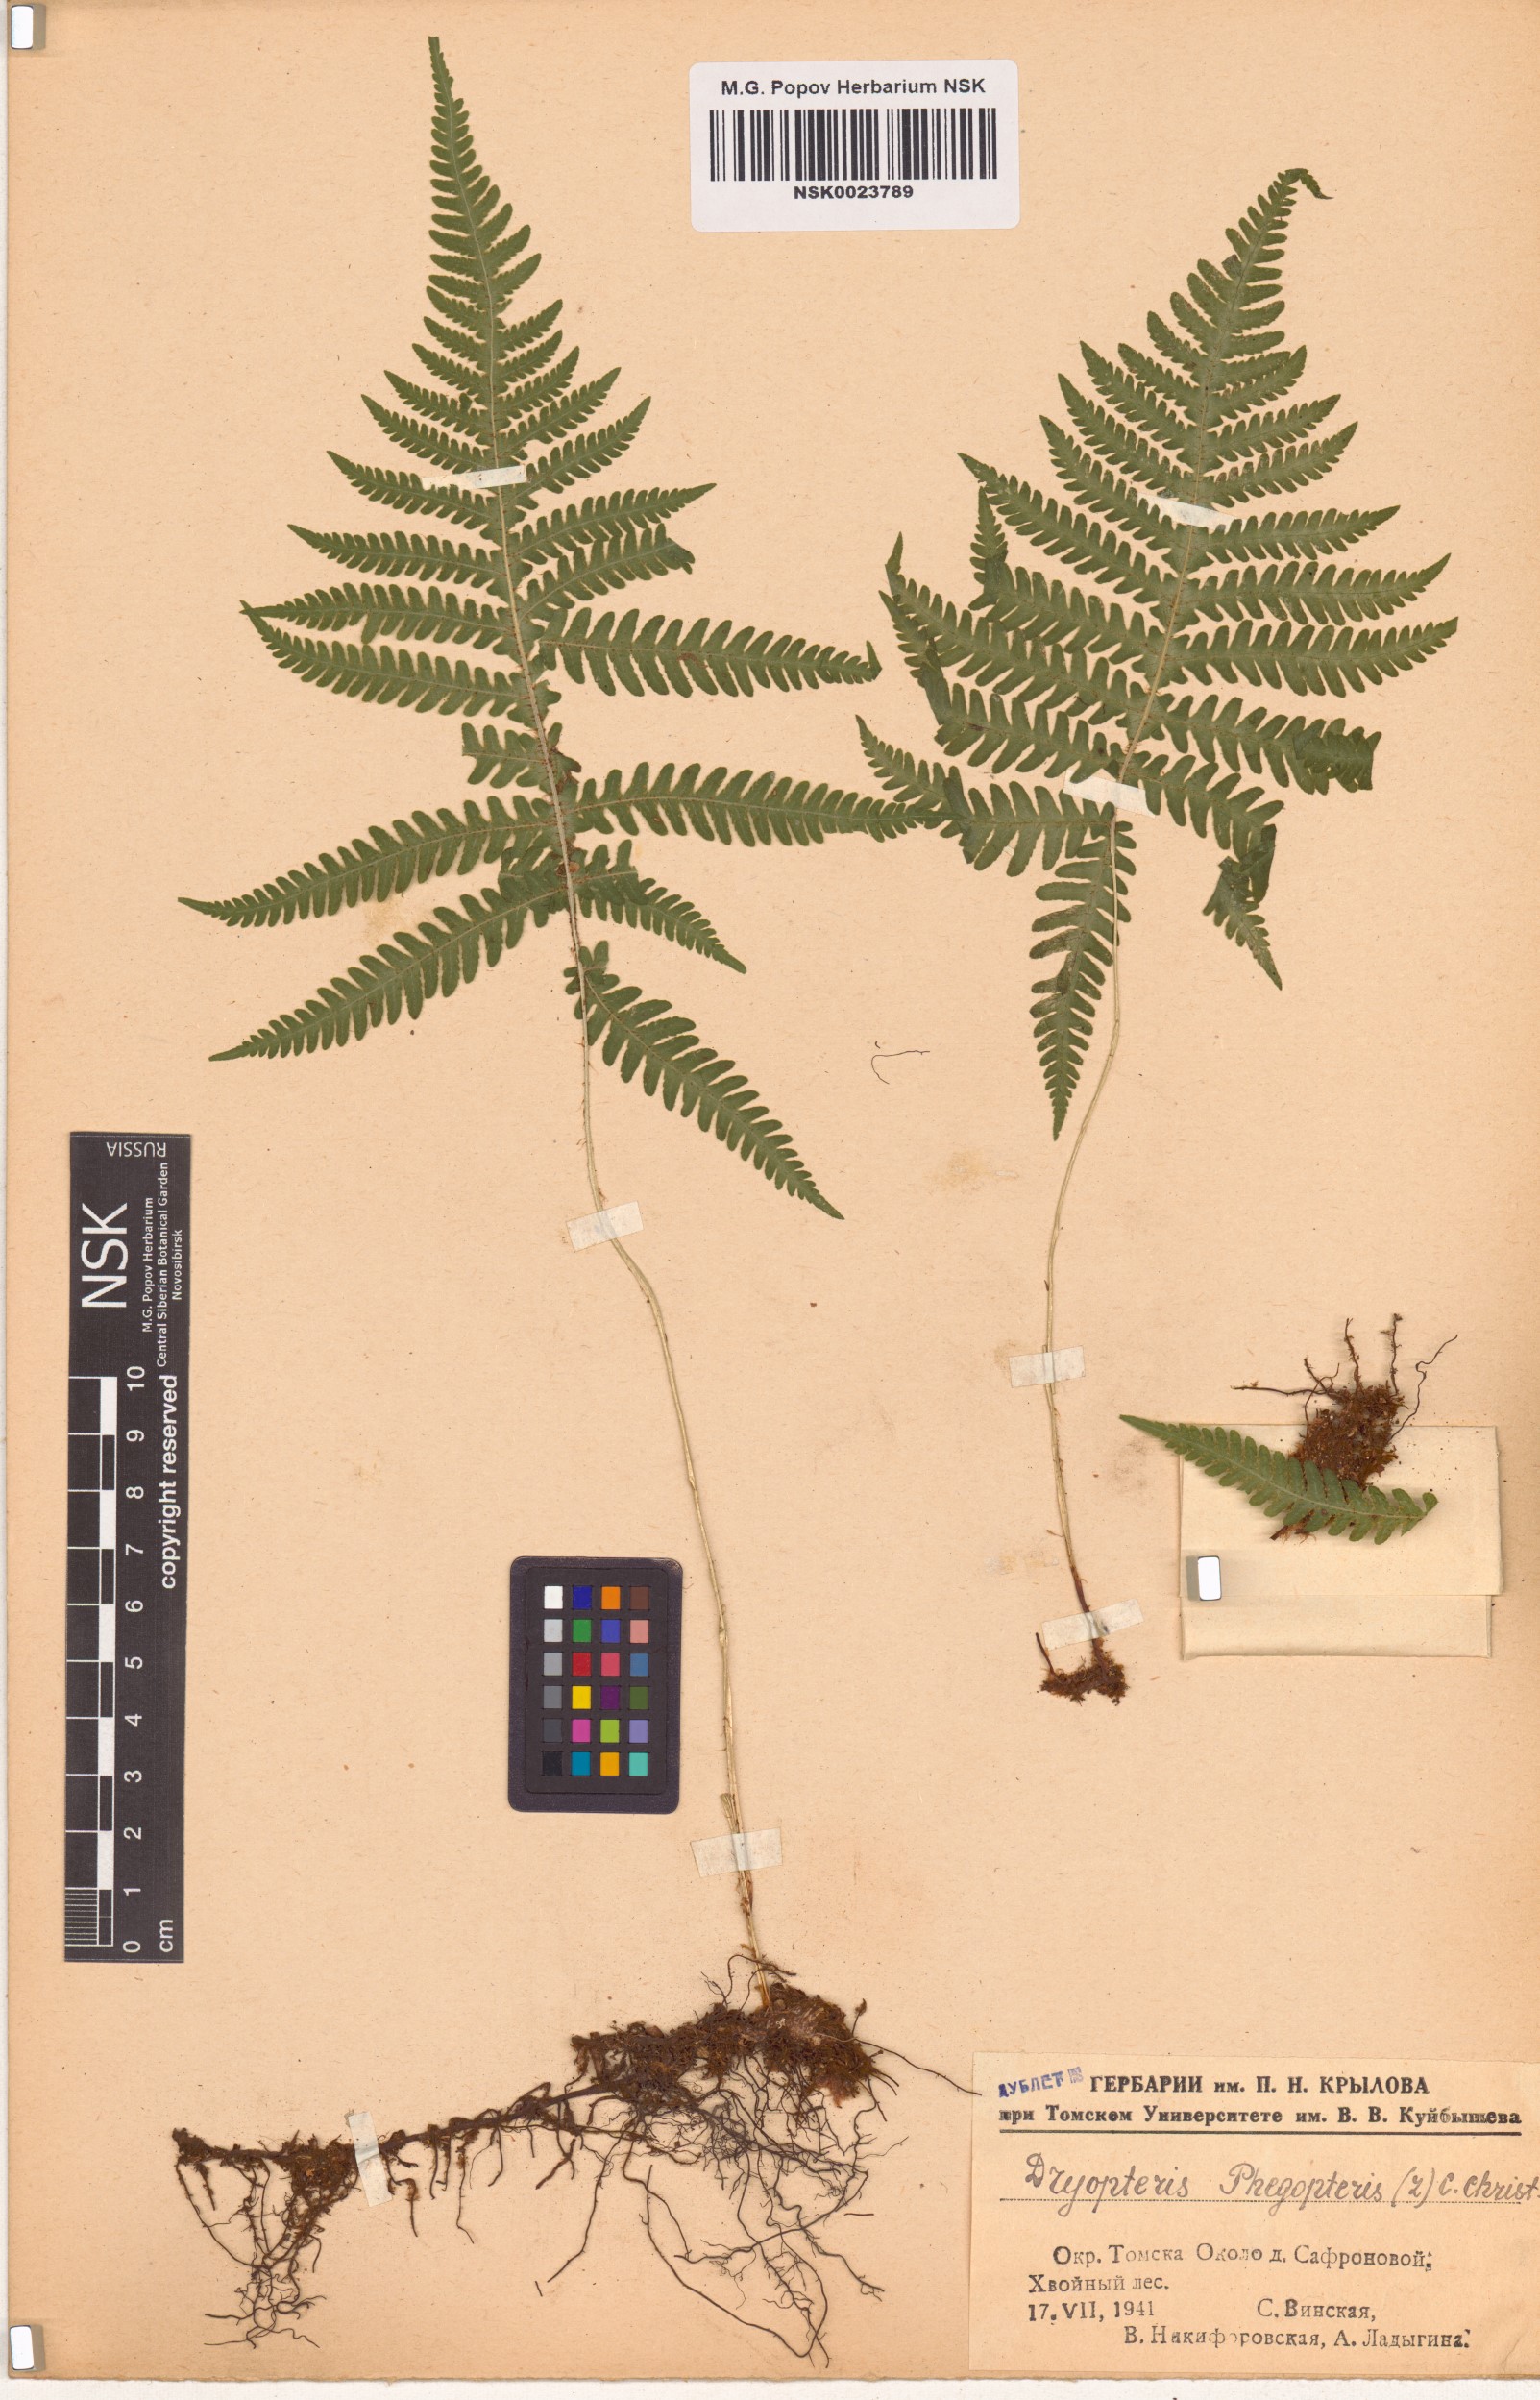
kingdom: Plantae
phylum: Tracheophyta
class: Polypodiopsida
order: Polypodiales
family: Thelypteridaceae
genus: Phegopteris
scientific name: Phegopteris connectilis
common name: Beech fern
